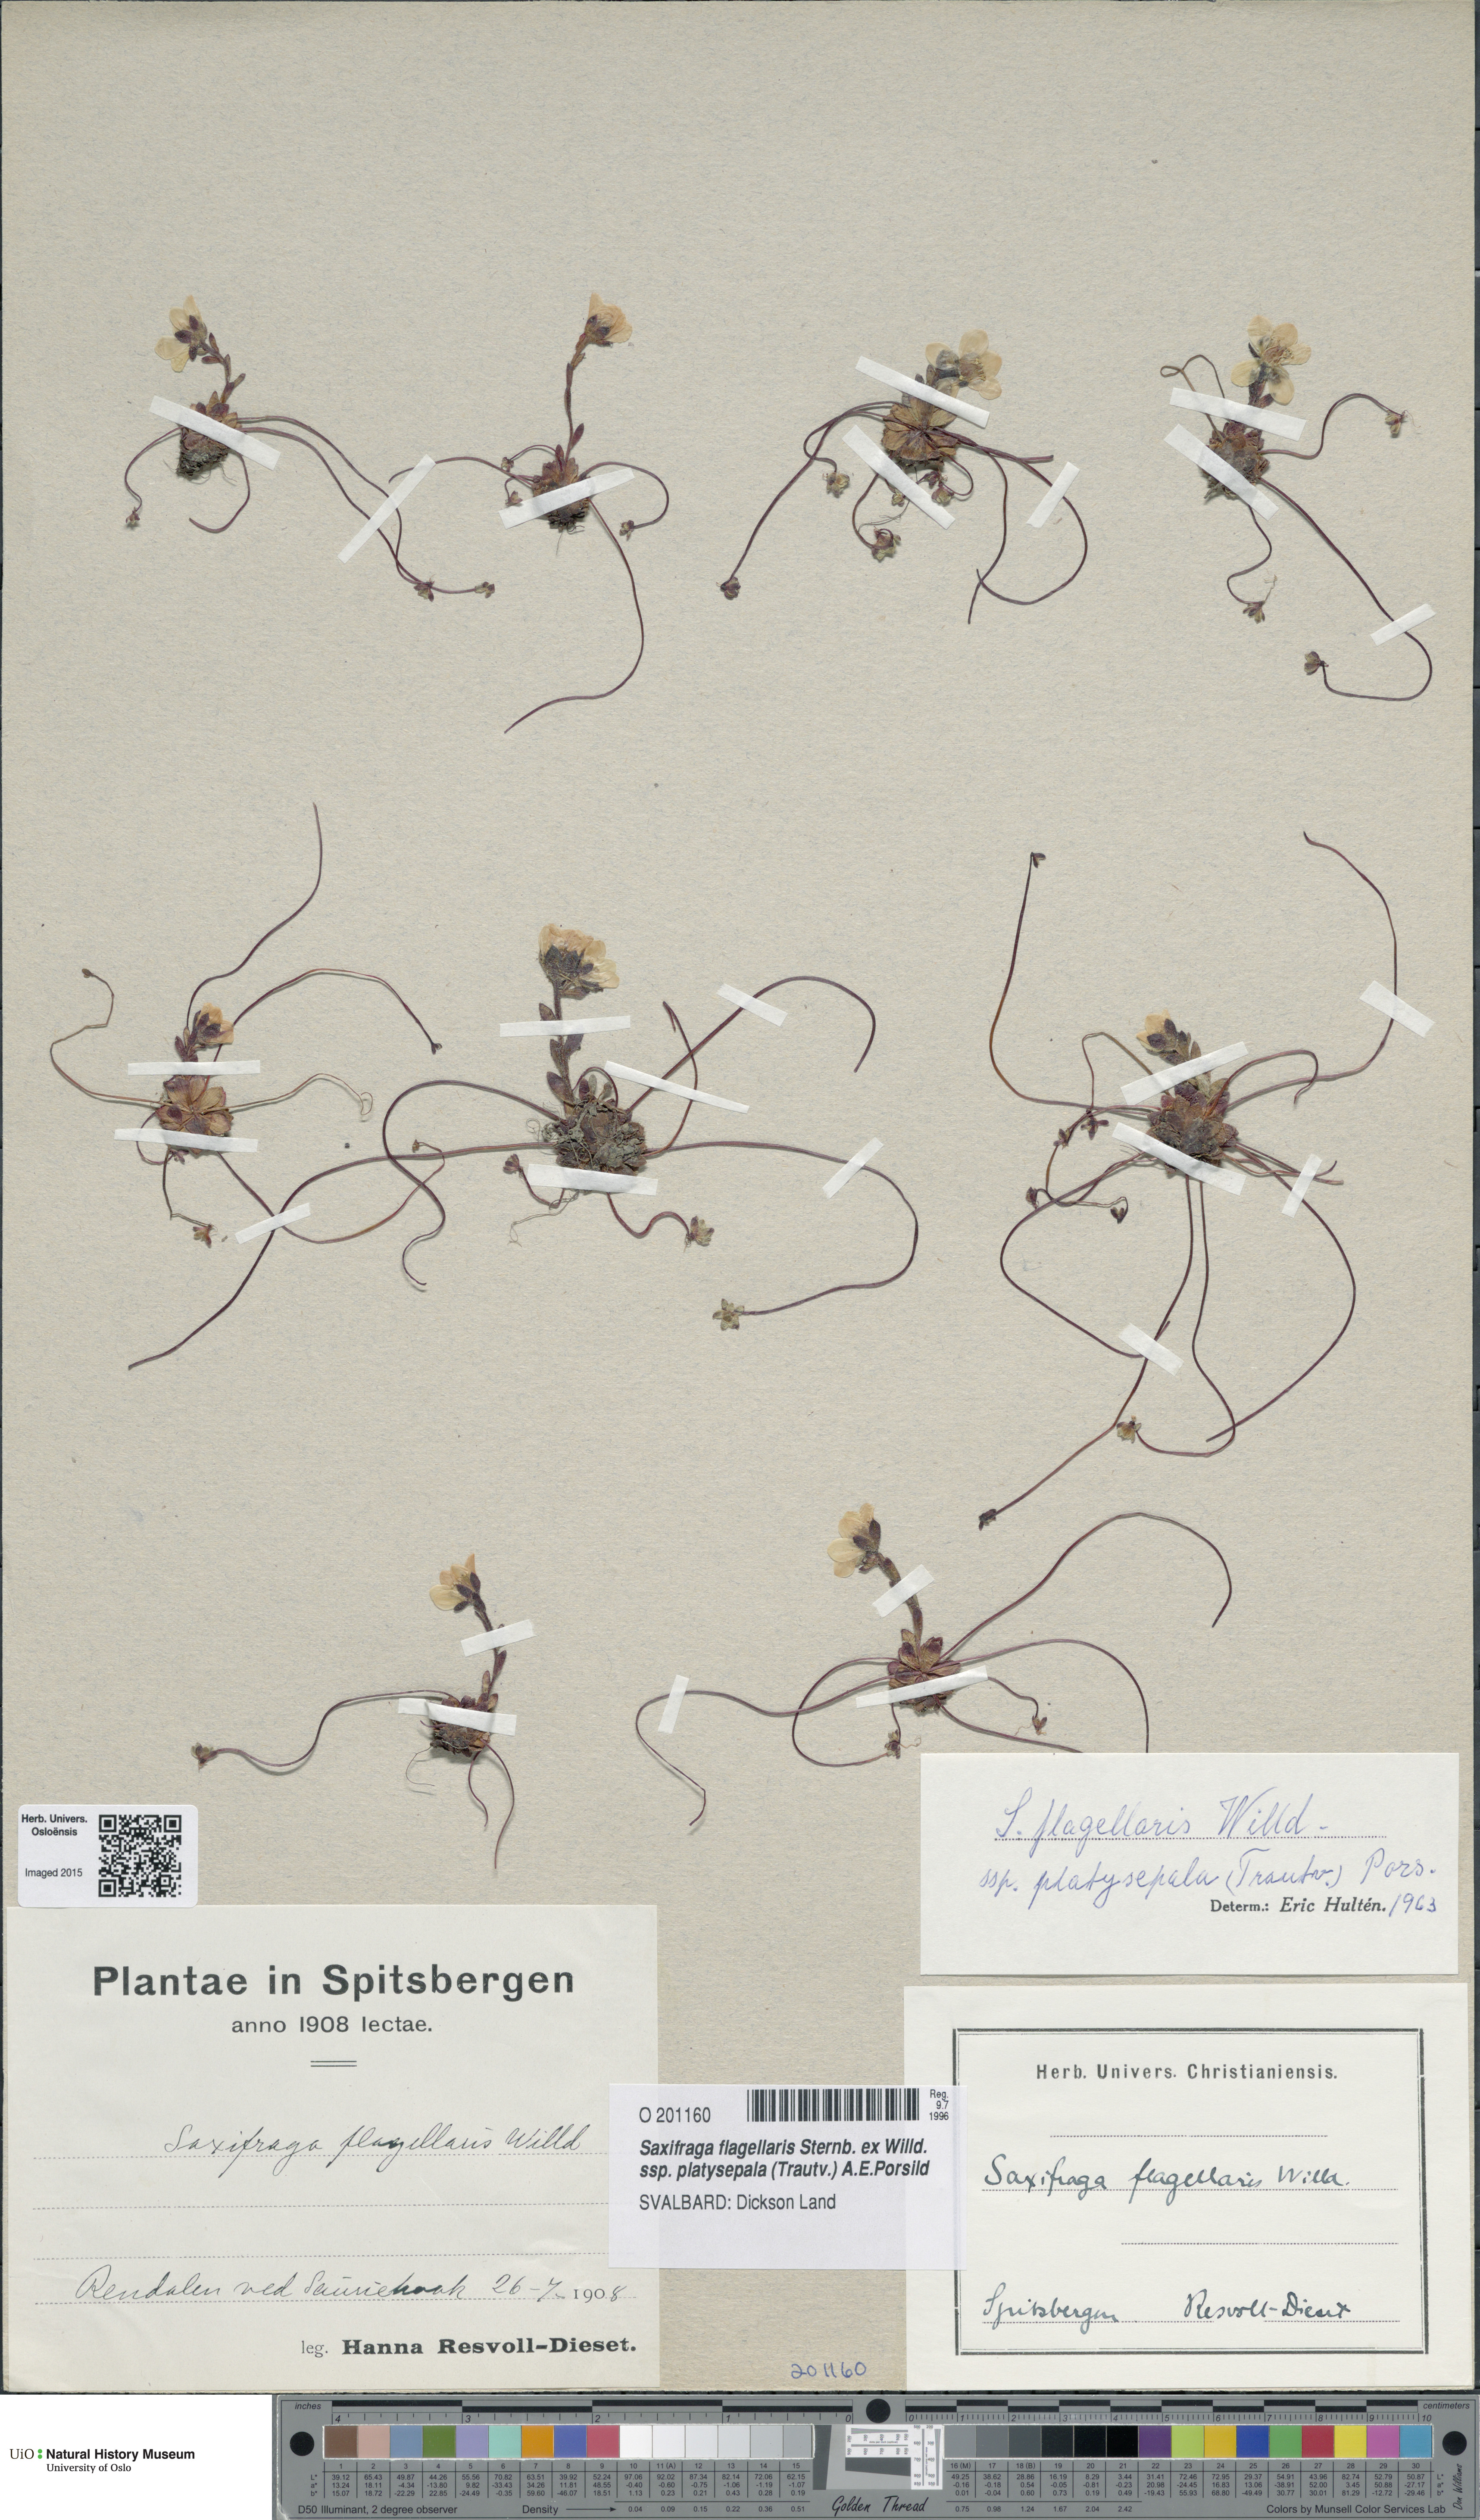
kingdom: Plantae
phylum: Tracheophyta
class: Magnoliopsida
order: Saxifragales
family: Saxifragaceae
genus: Saxifraga
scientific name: Saxifraga platysepala
